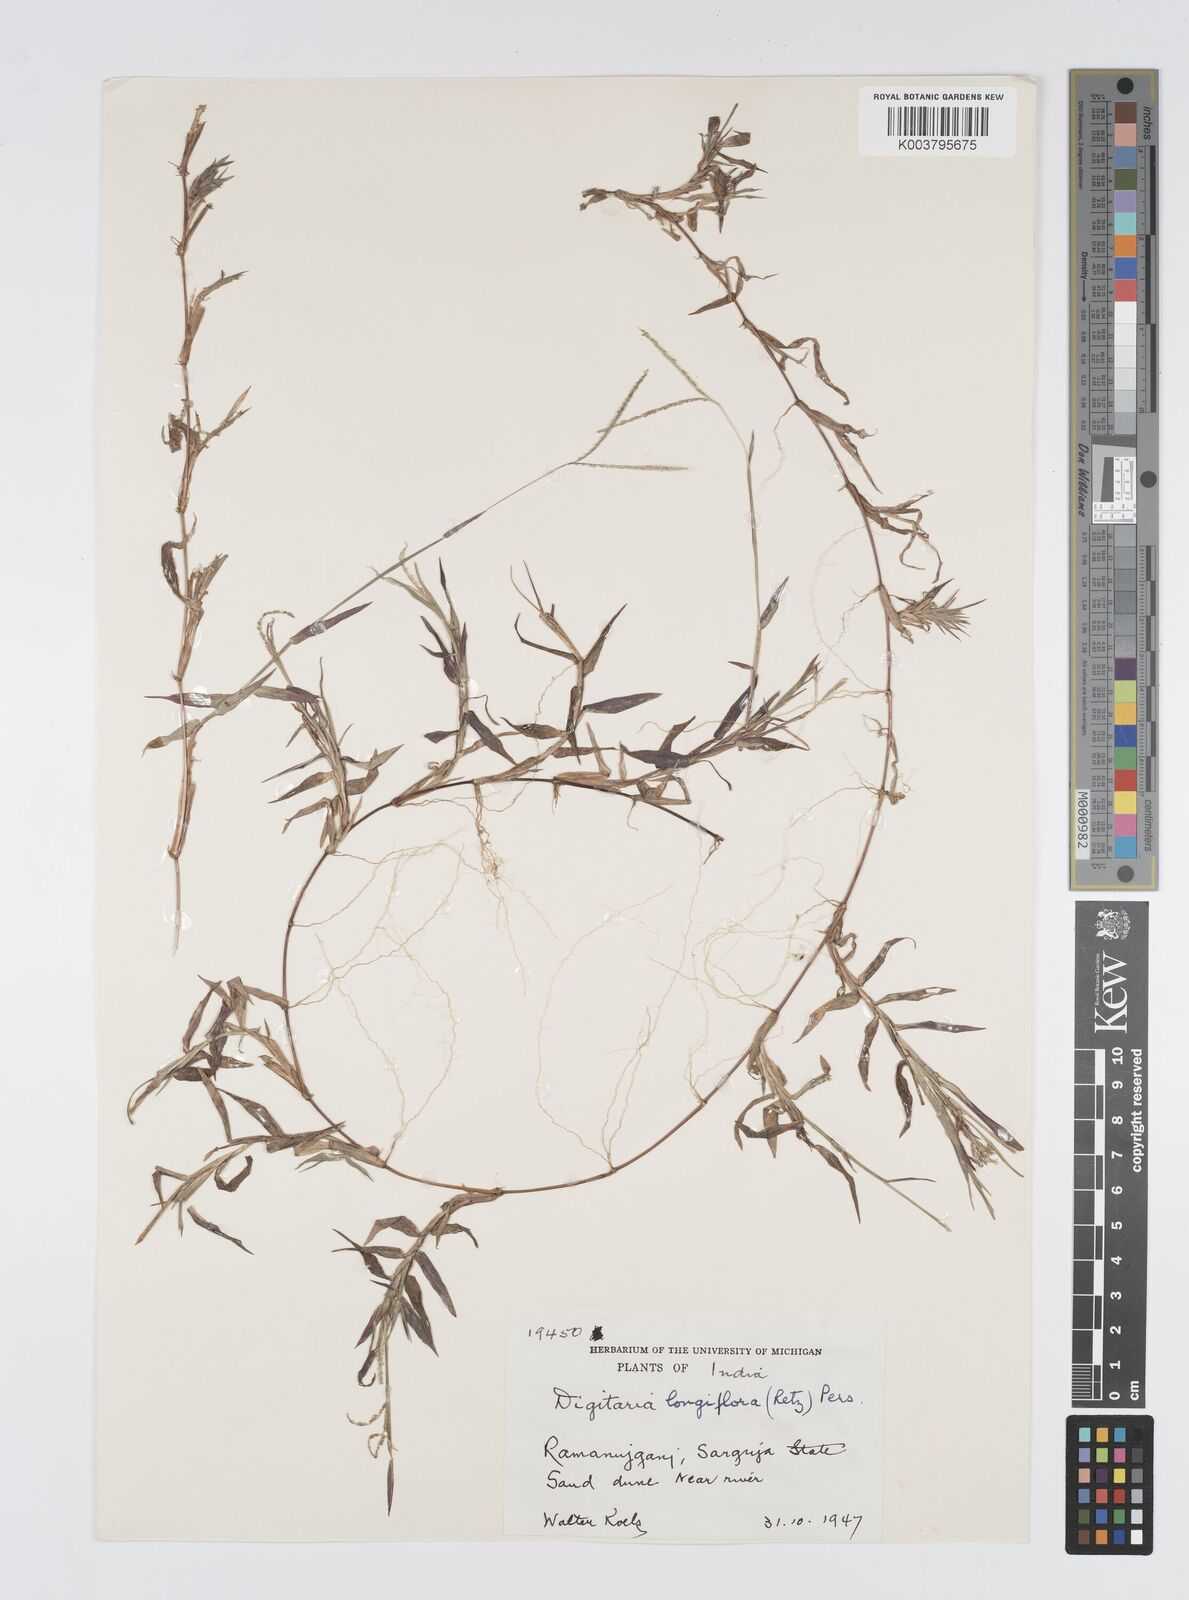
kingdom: Plantae
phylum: Tracheophyta
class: Liliopsida
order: Poales
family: Poaceae
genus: Digitaria
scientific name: Digitaria longiflora
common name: Wire crabgrass
